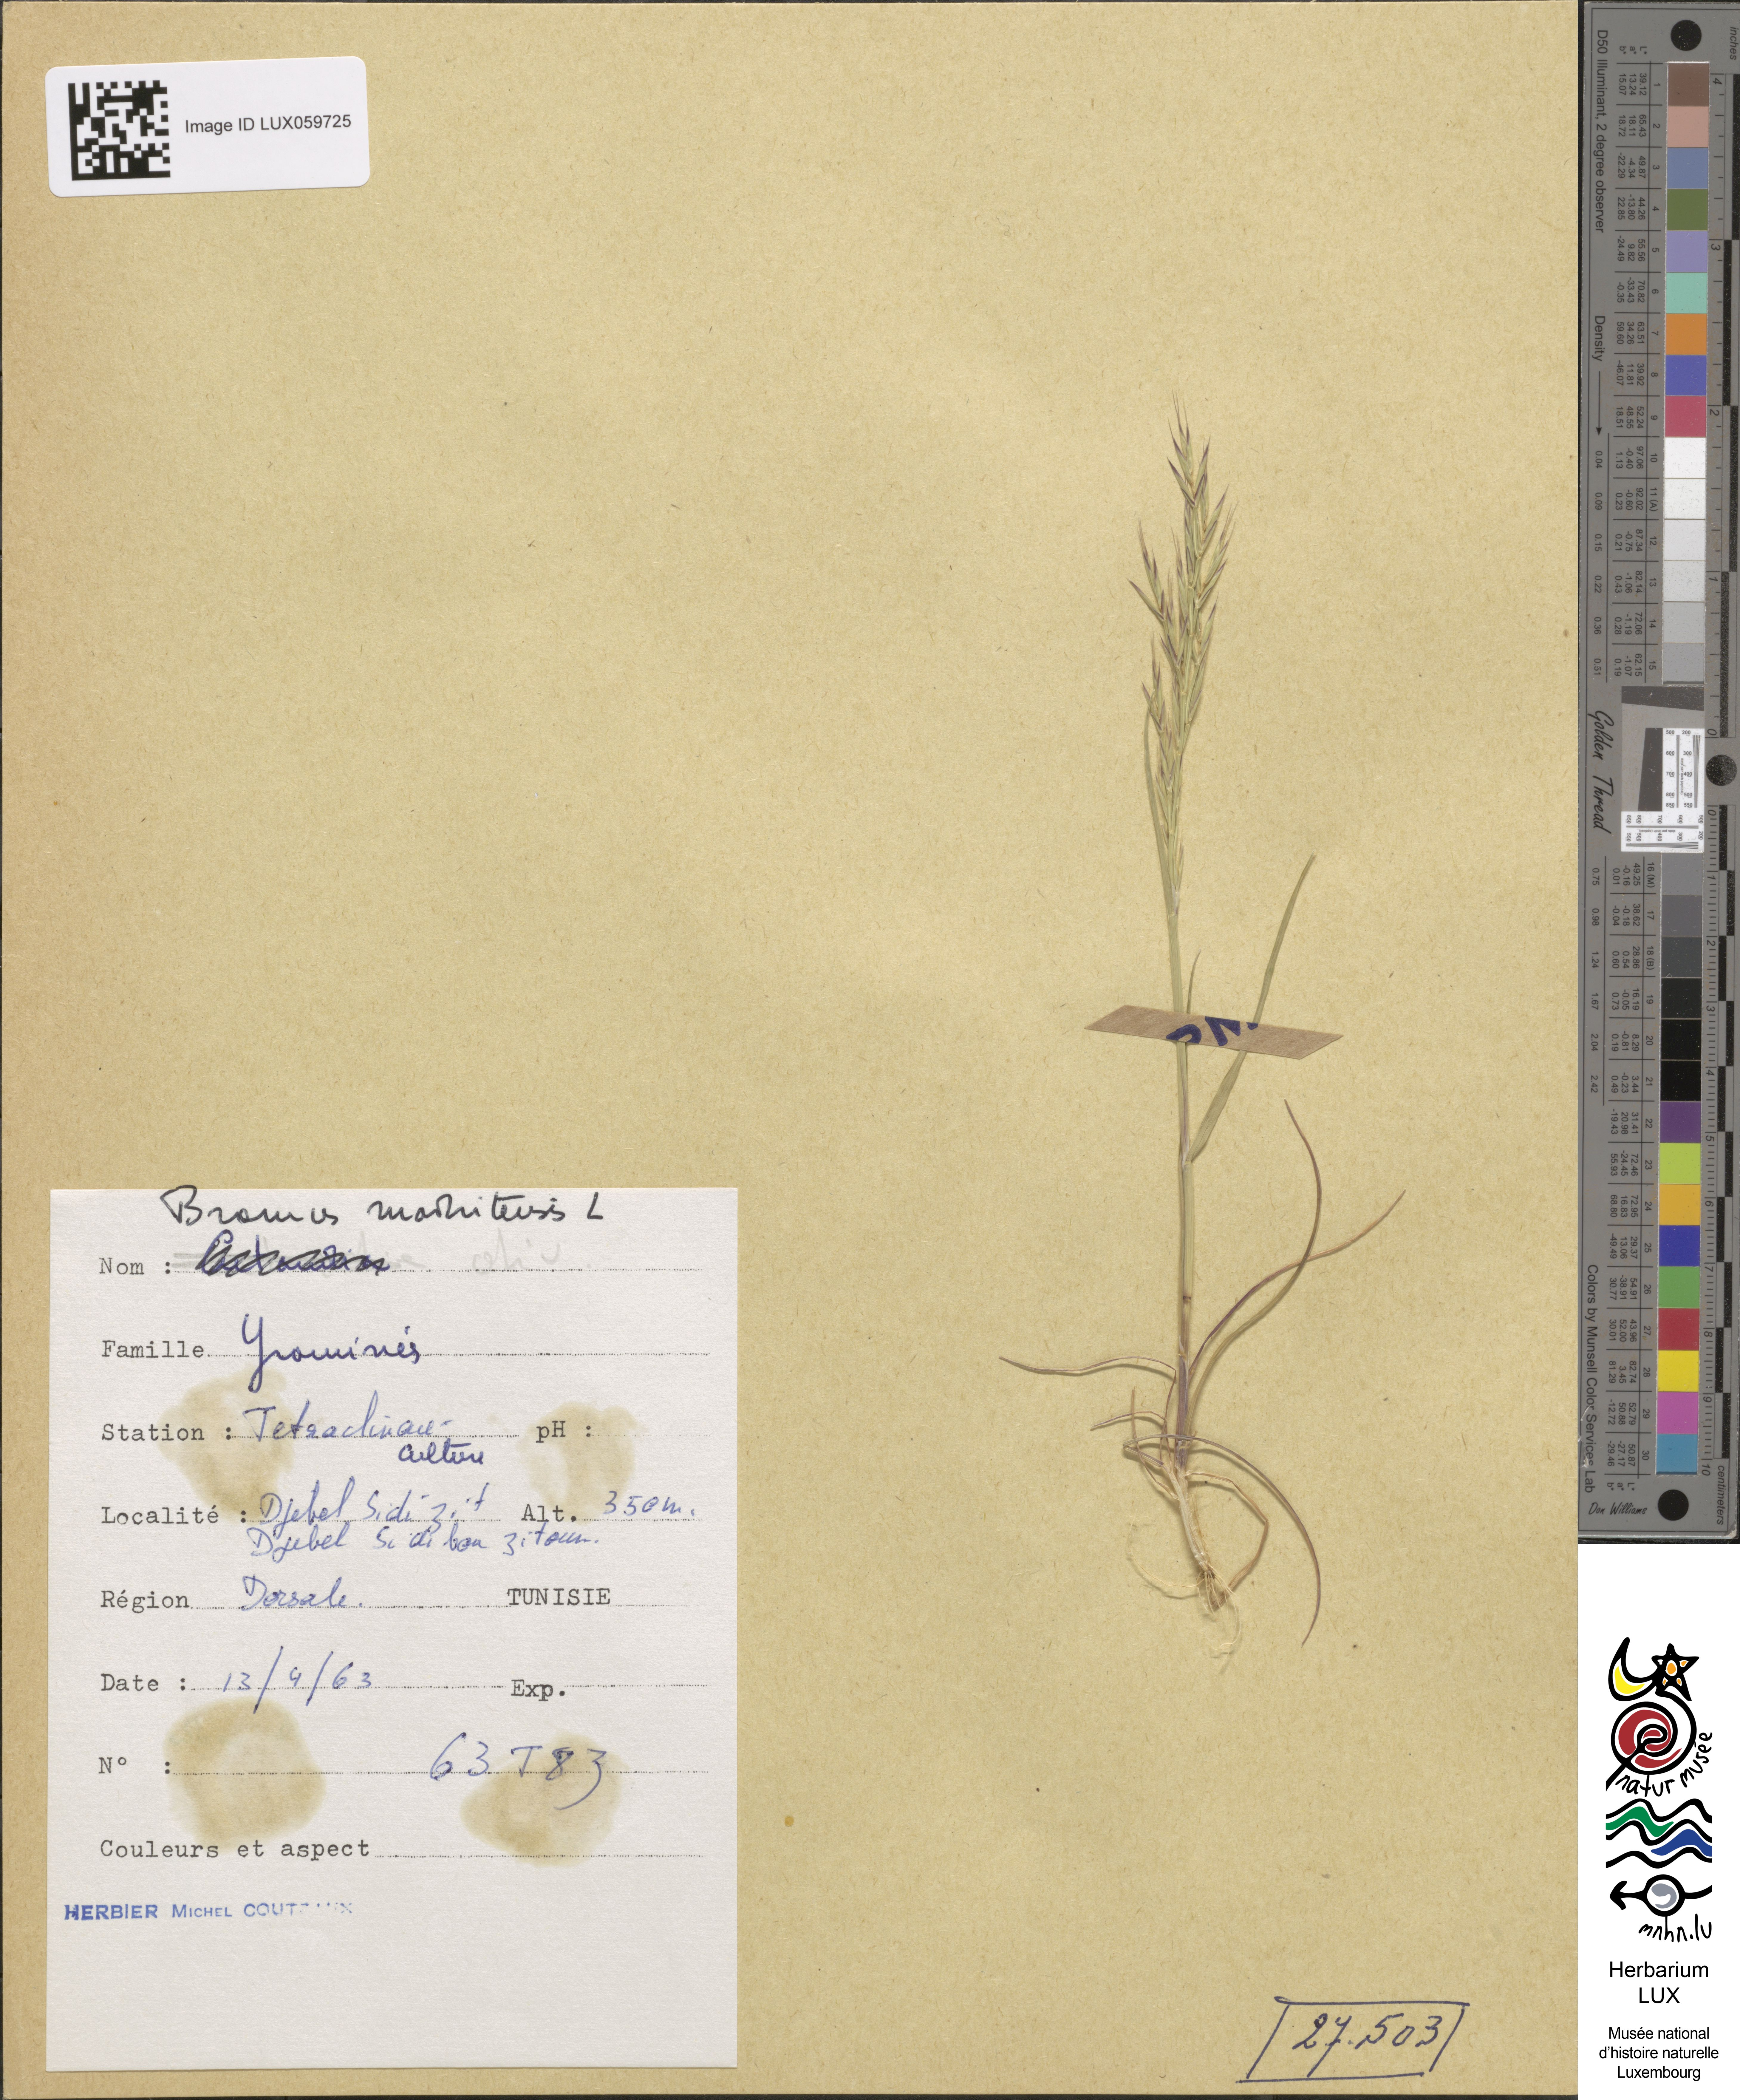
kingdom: Plantae
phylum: Tracheophyta
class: Liliopsida
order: Poales
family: Poaceae
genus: Bromus
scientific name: Bromus madritensis
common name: Compact brome
